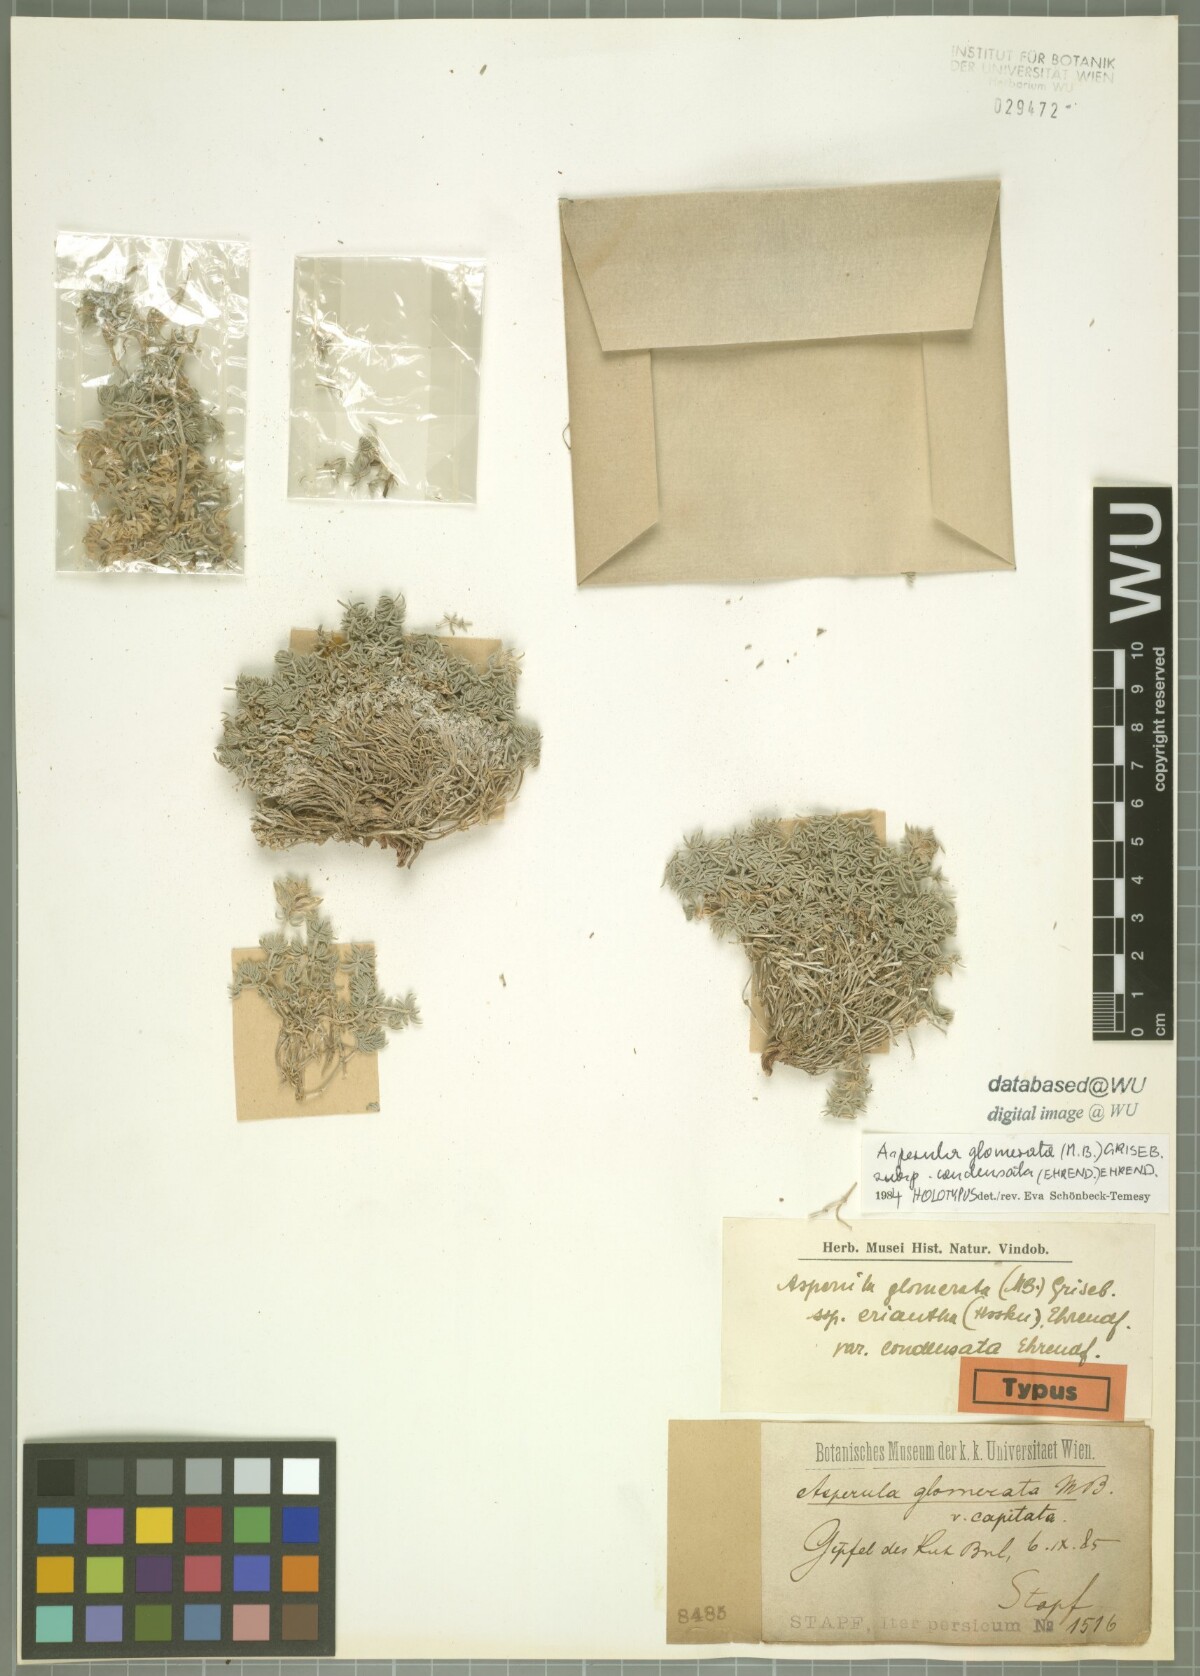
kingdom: Plantae
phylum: Tracheophyta
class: Magnoliopsida
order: Gentianales
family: Rubiaceae
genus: Asperula
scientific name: Asperula glomerata
